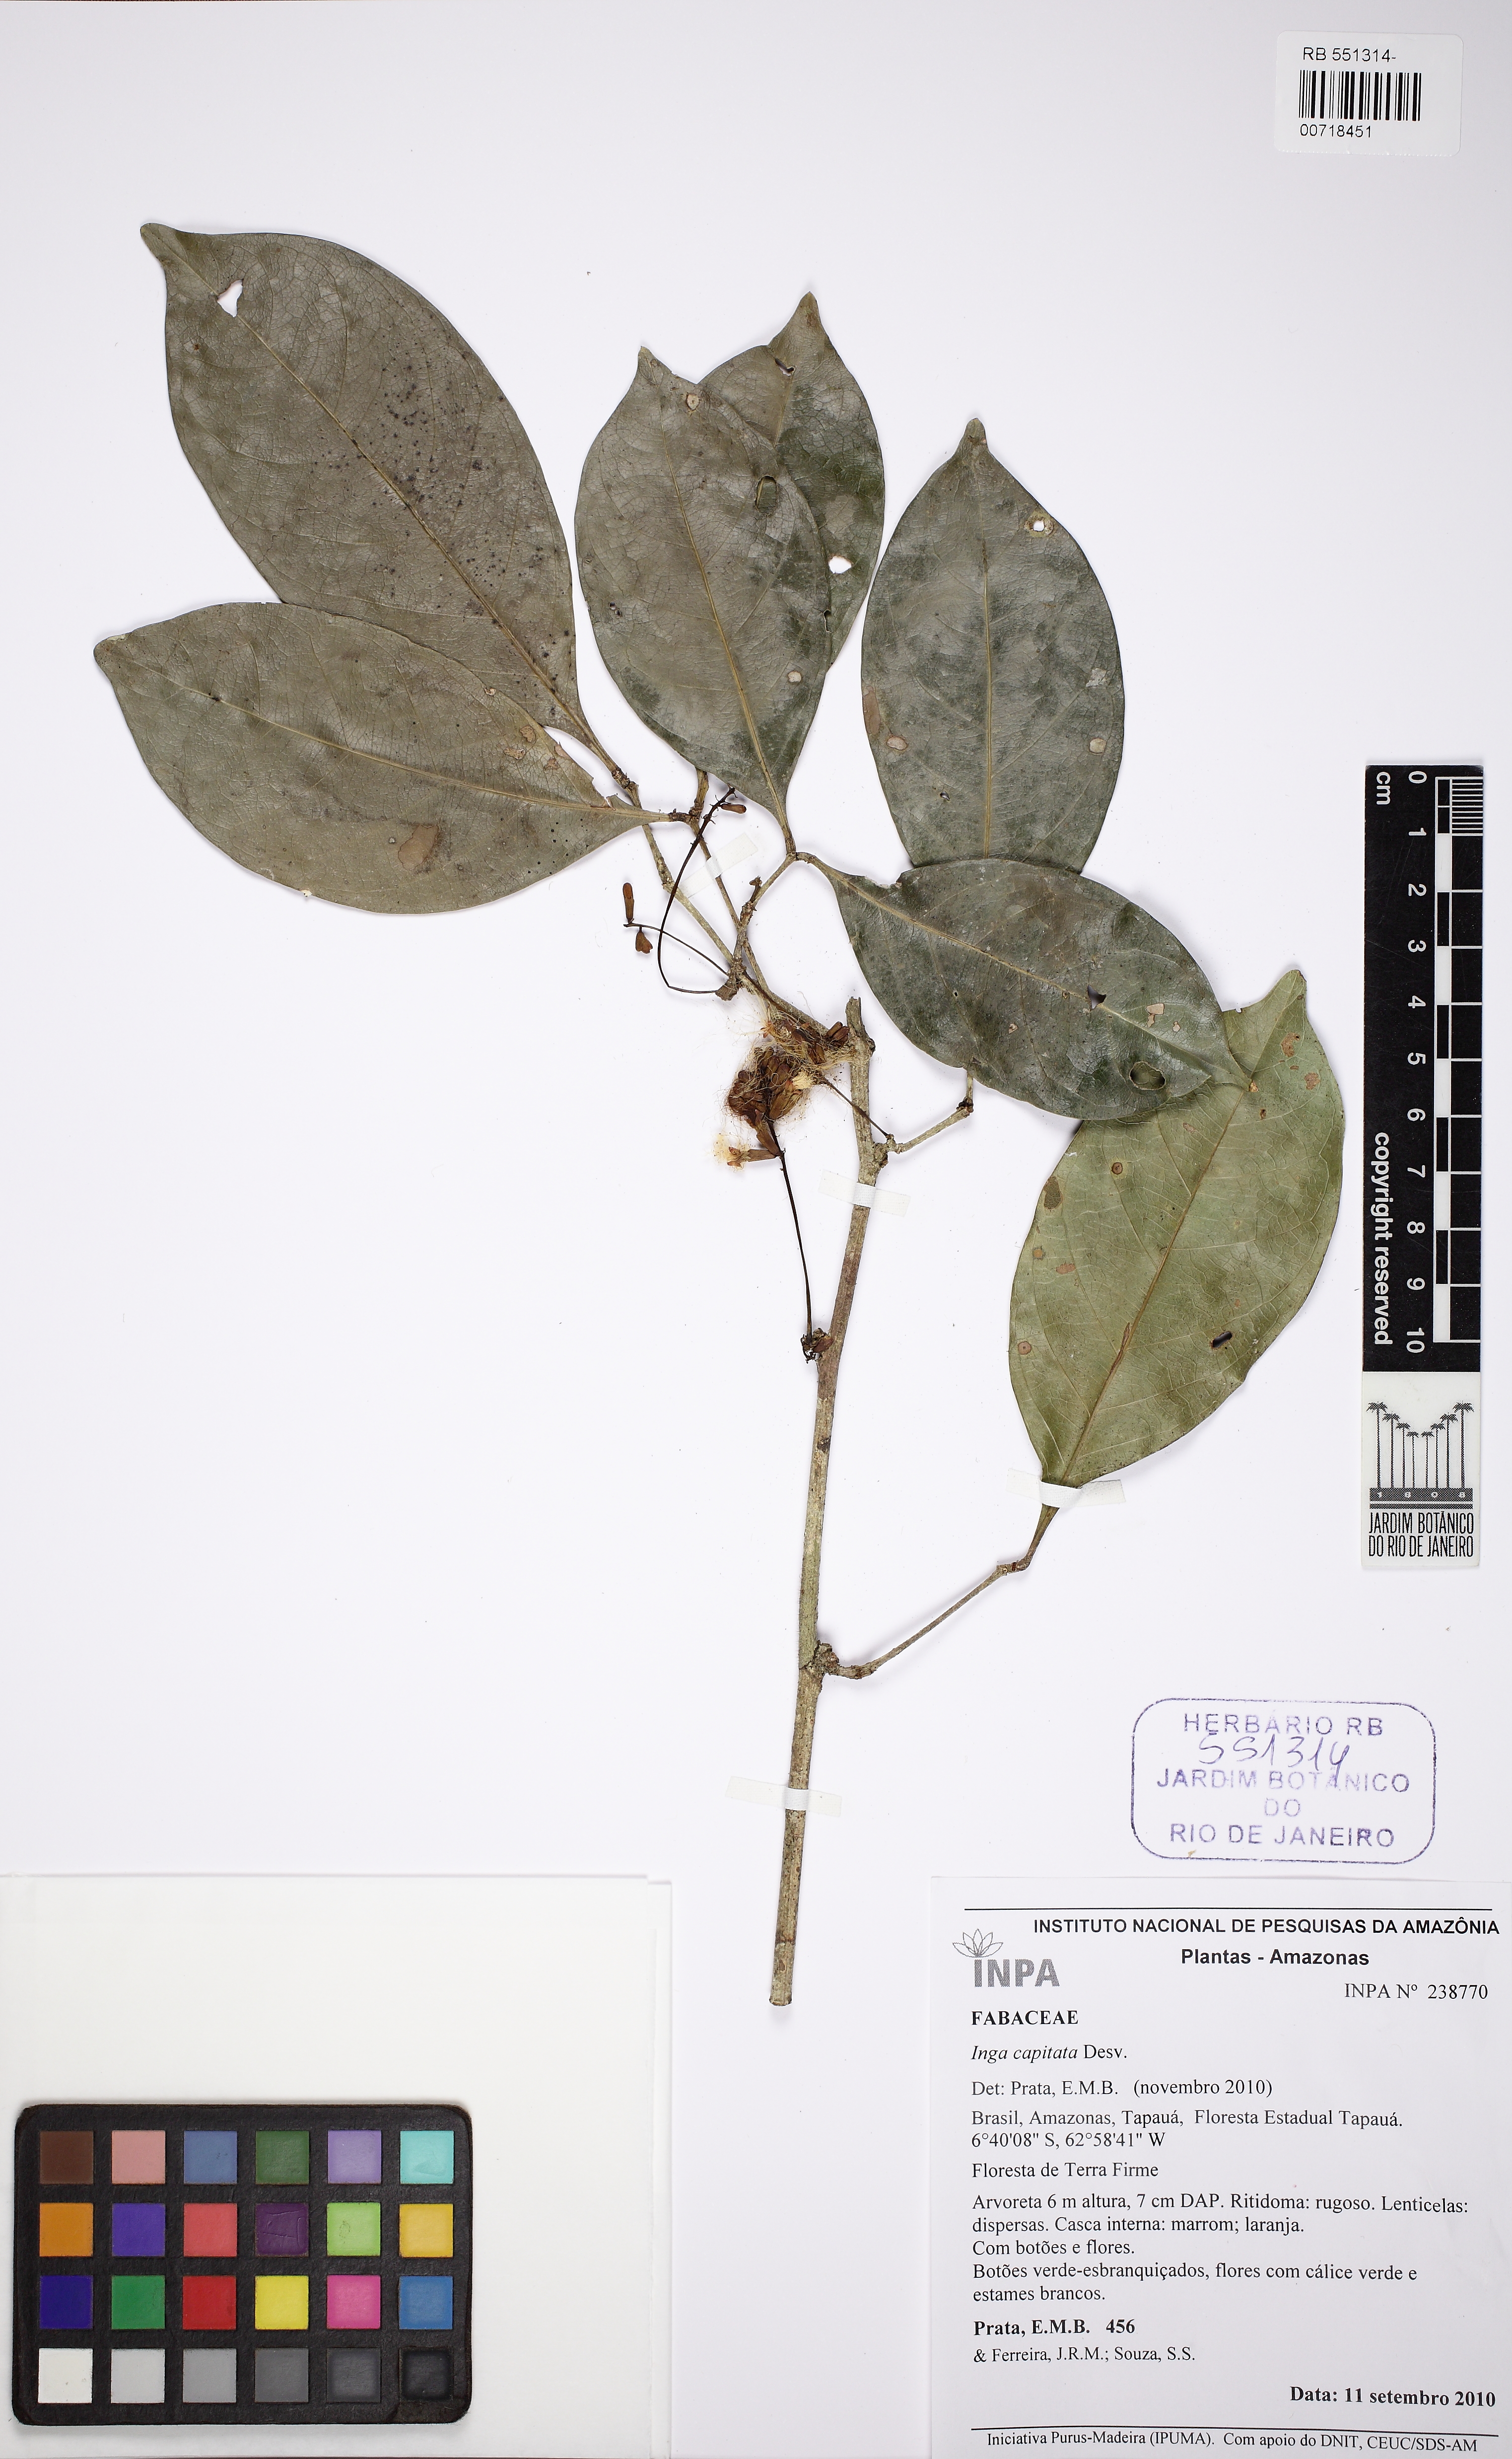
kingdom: Plantae
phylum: Tracheophyta
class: Magnoliopsida
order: Fabales
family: Fabaceae
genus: Inga
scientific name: Inga capitata
